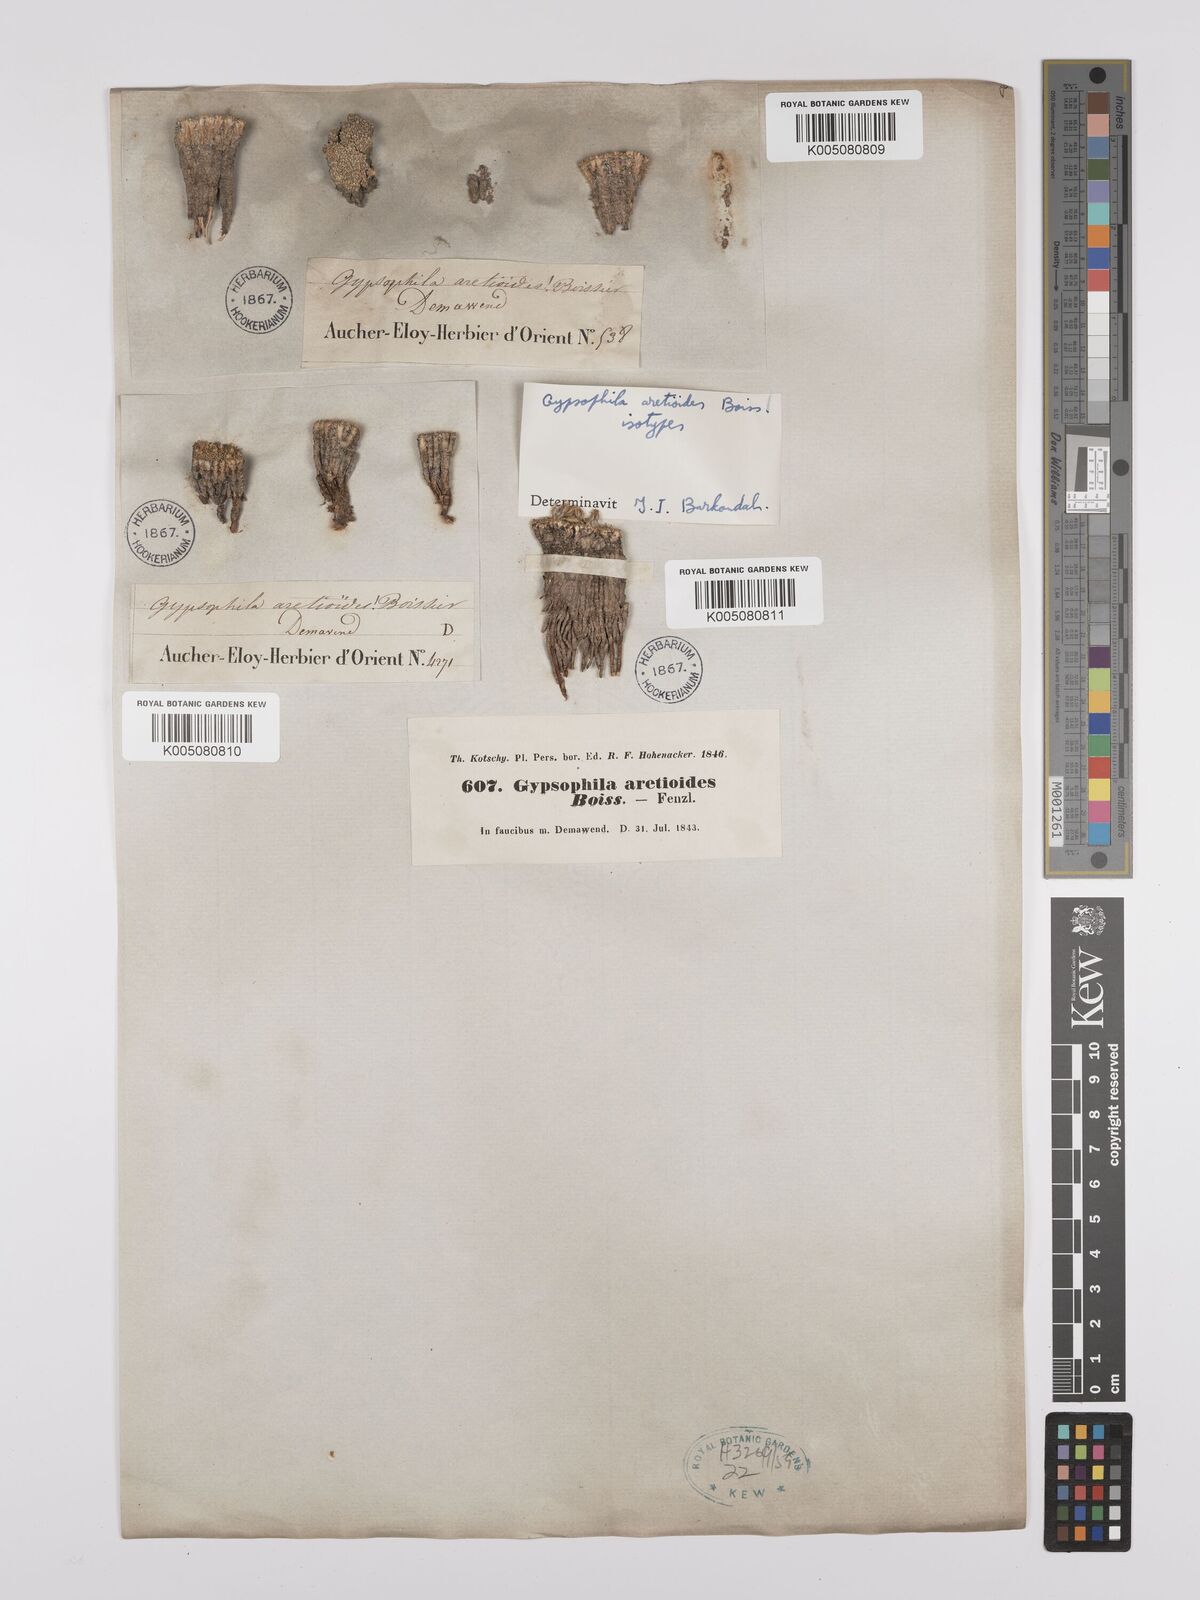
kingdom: Plantae
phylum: Tracheophyta
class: Magnoliopsida
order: Caryophyllales
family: Caryophyllaceae
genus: Gypsophila
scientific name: Gypsophila aretioides
